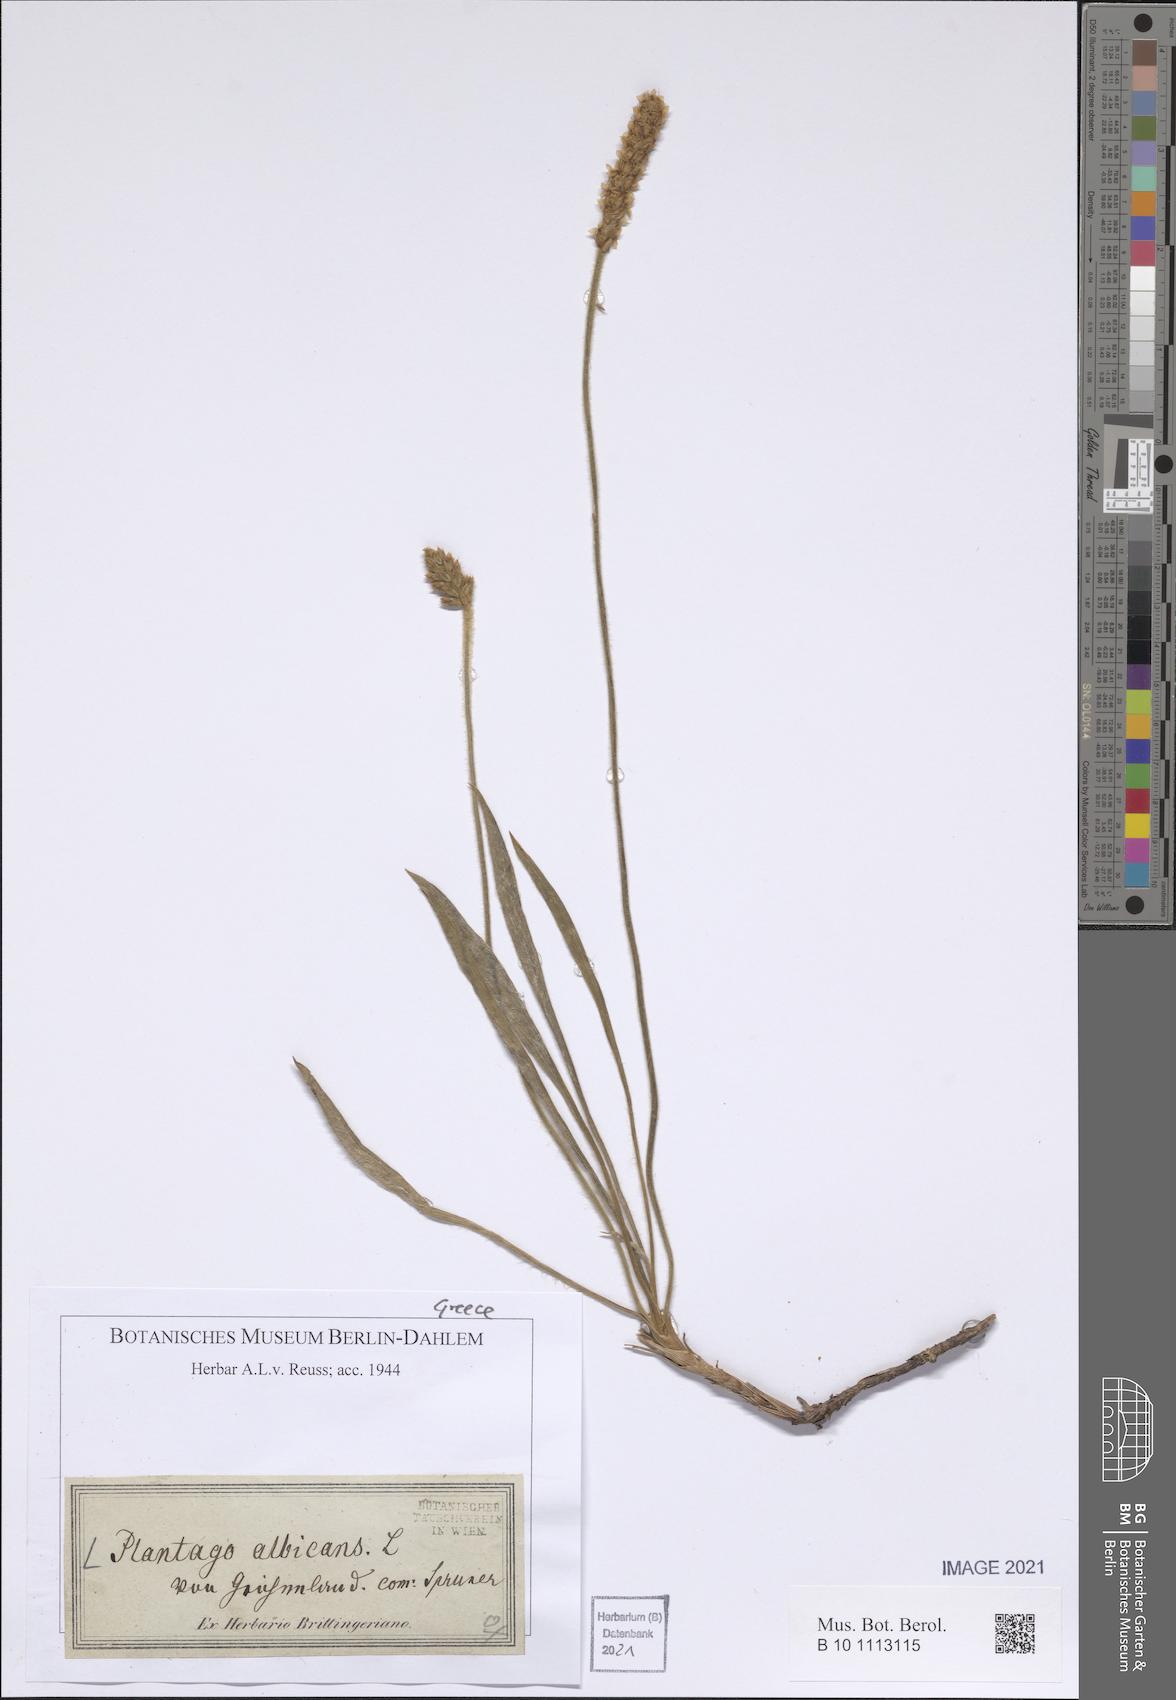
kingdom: Plantae
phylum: Tracheophyta
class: Magnoliopsida
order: Lamiales
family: Plantaginaceae
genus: Plantago
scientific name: Plantago albicans
